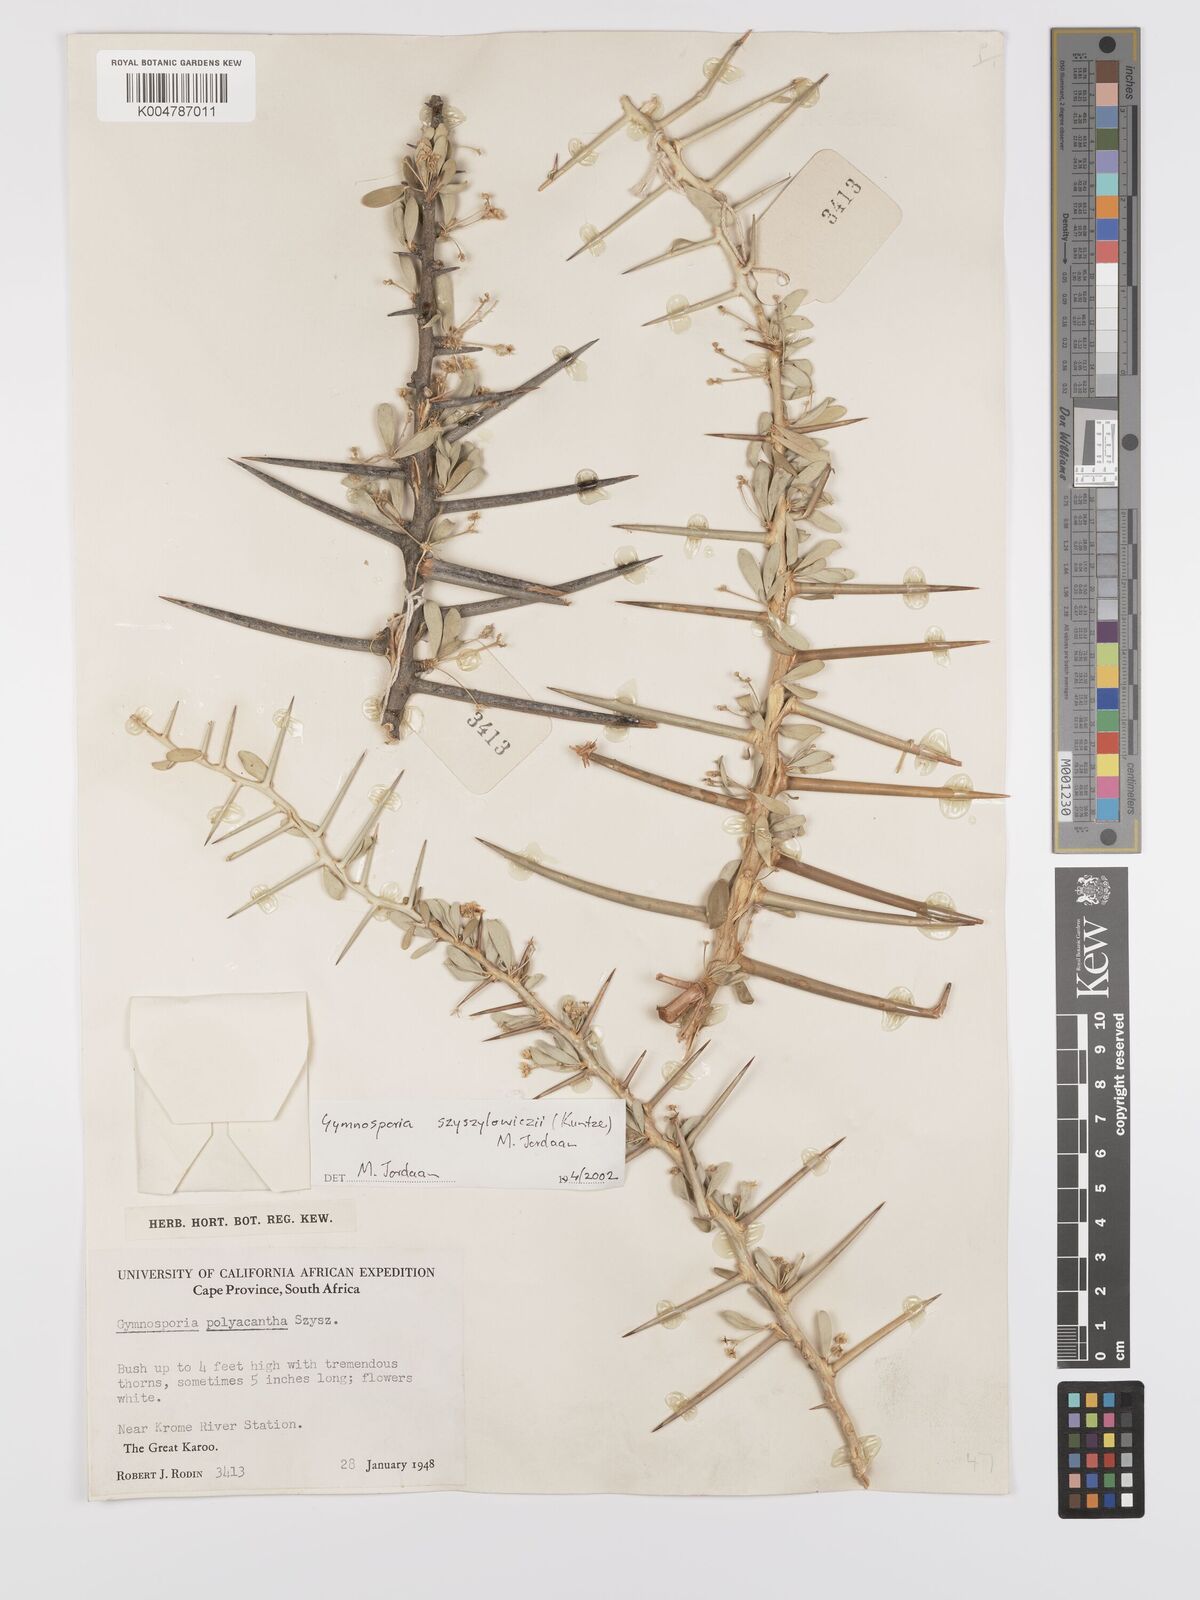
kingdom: Plantae
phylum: Tracheophyta
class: Magnoliopsida
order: Celastrales
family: Celastraceae
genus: Gymnosporia
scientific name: Gymnosporia
